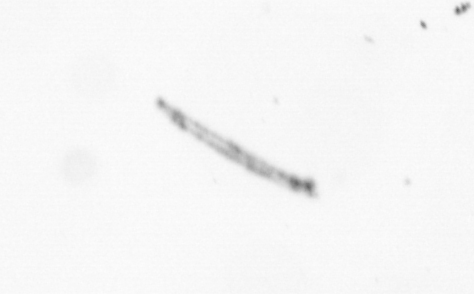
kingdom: Chromista
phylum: Ochrophyta
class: Bacillariophyceae
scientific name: Bacillariophyceae
